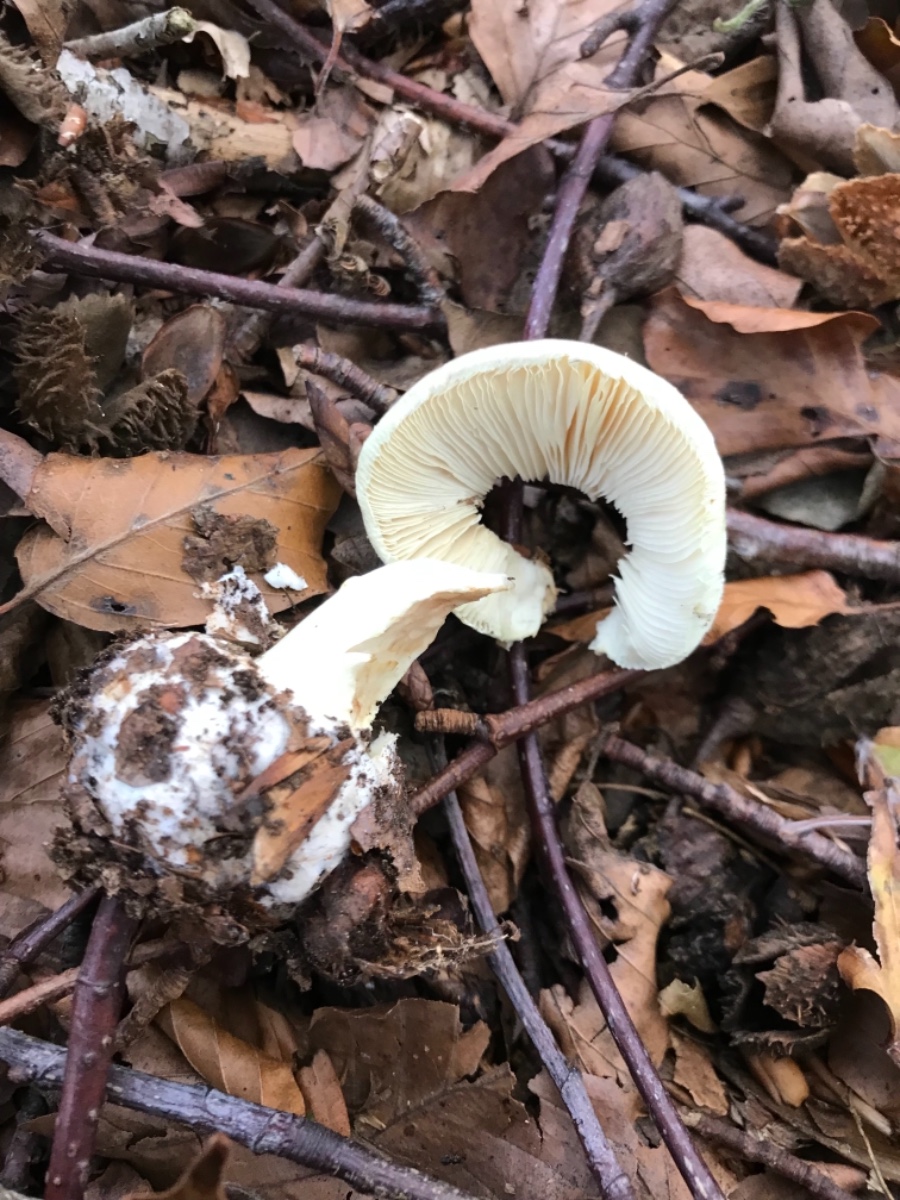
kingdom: Fungi
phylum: Basidiomycota
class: Agaricomycetes
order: Agaricales
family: Amanitaceae
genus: Amanita
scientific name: Amanita citrina
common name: kugleknoldet fluesvamp
